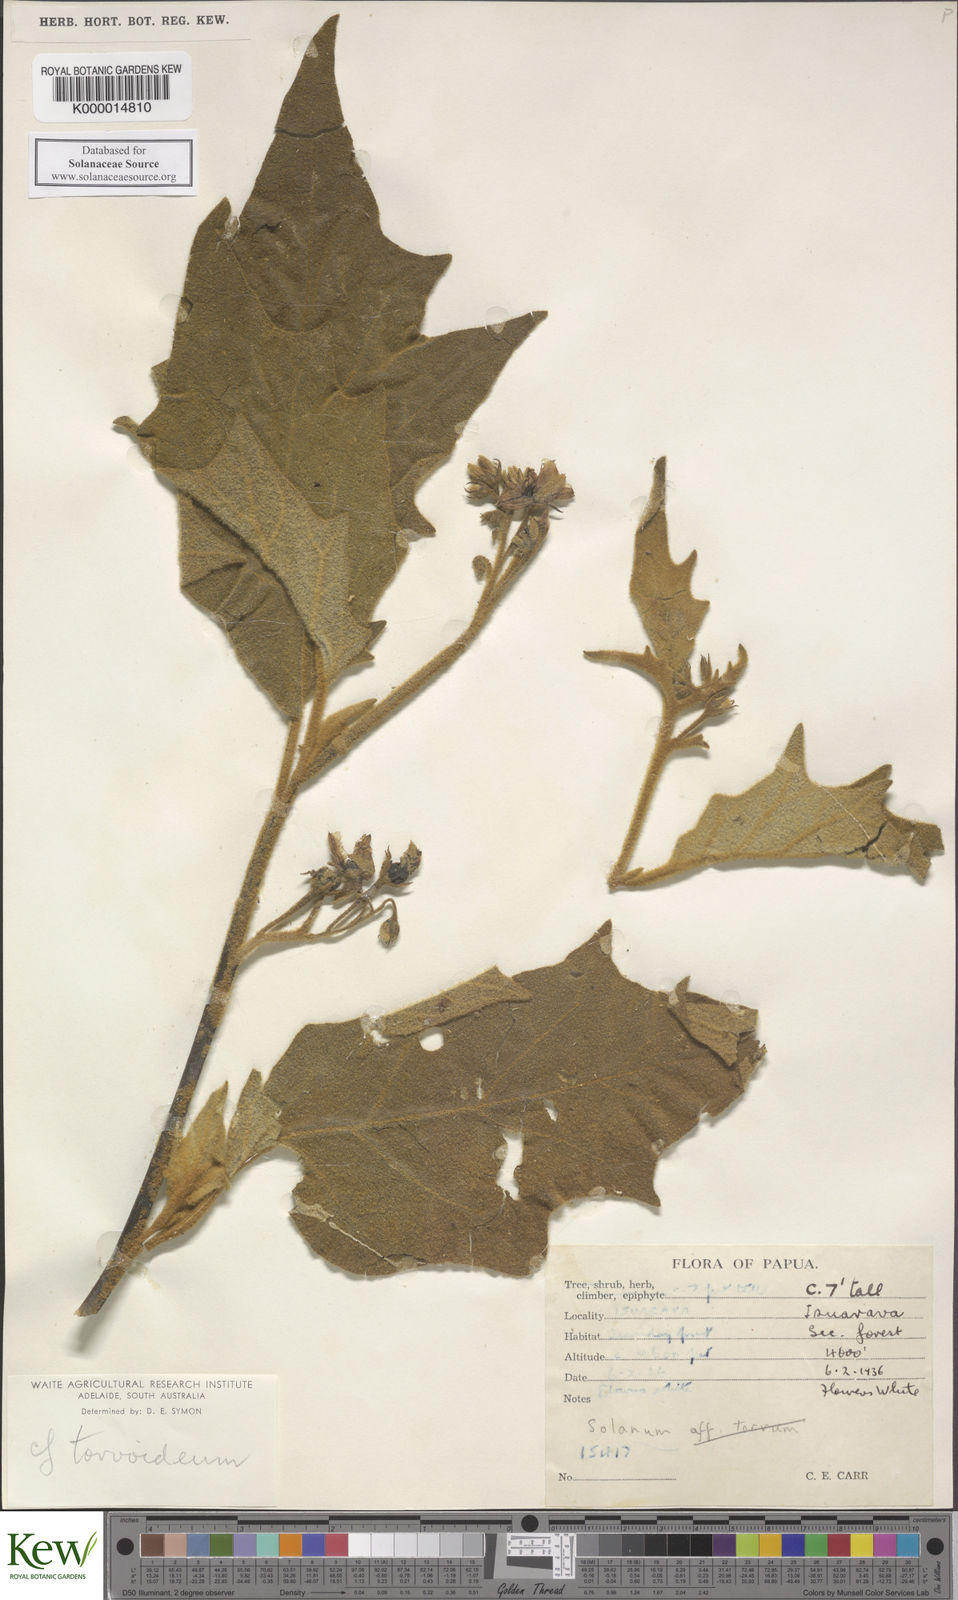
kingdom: Plantae
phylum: Tracheophyta
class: Magnoliopsida
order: Solanales
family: Solanaceae
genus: Solanum
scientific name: Solanum torvoideum
